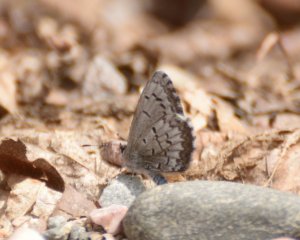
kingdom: Animalia
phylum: Arthropoda
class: Insecta
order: Lepidoptera
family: Lycaenidae
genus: Celastrina
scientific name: Celastrina lucia
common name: Northern Spring Azure
